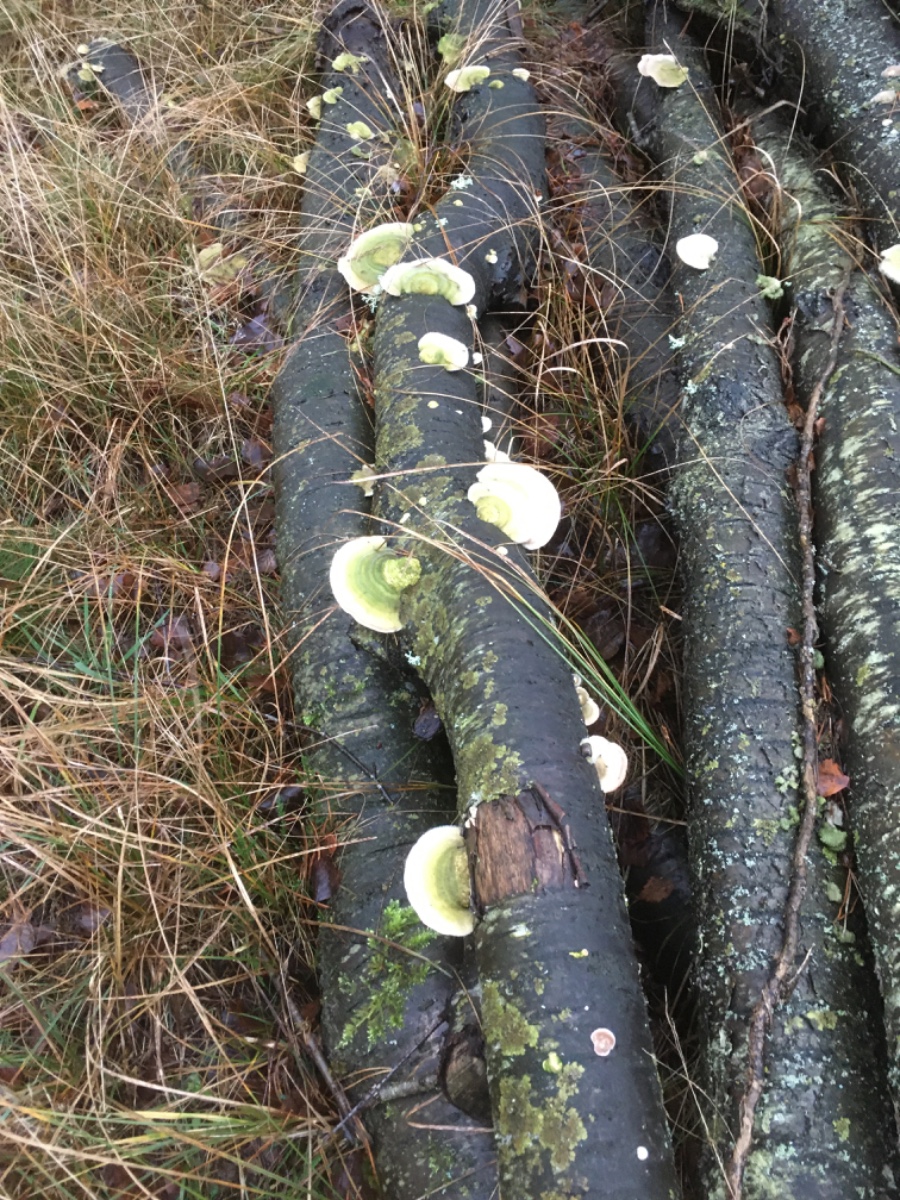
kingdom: Fungi
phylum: Basidiomycota
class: Agaricomycetes
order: Polyporales
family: Polyporaceae
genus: Trametes
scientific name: Trametes hirsuta
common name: håret læderporesvamp
